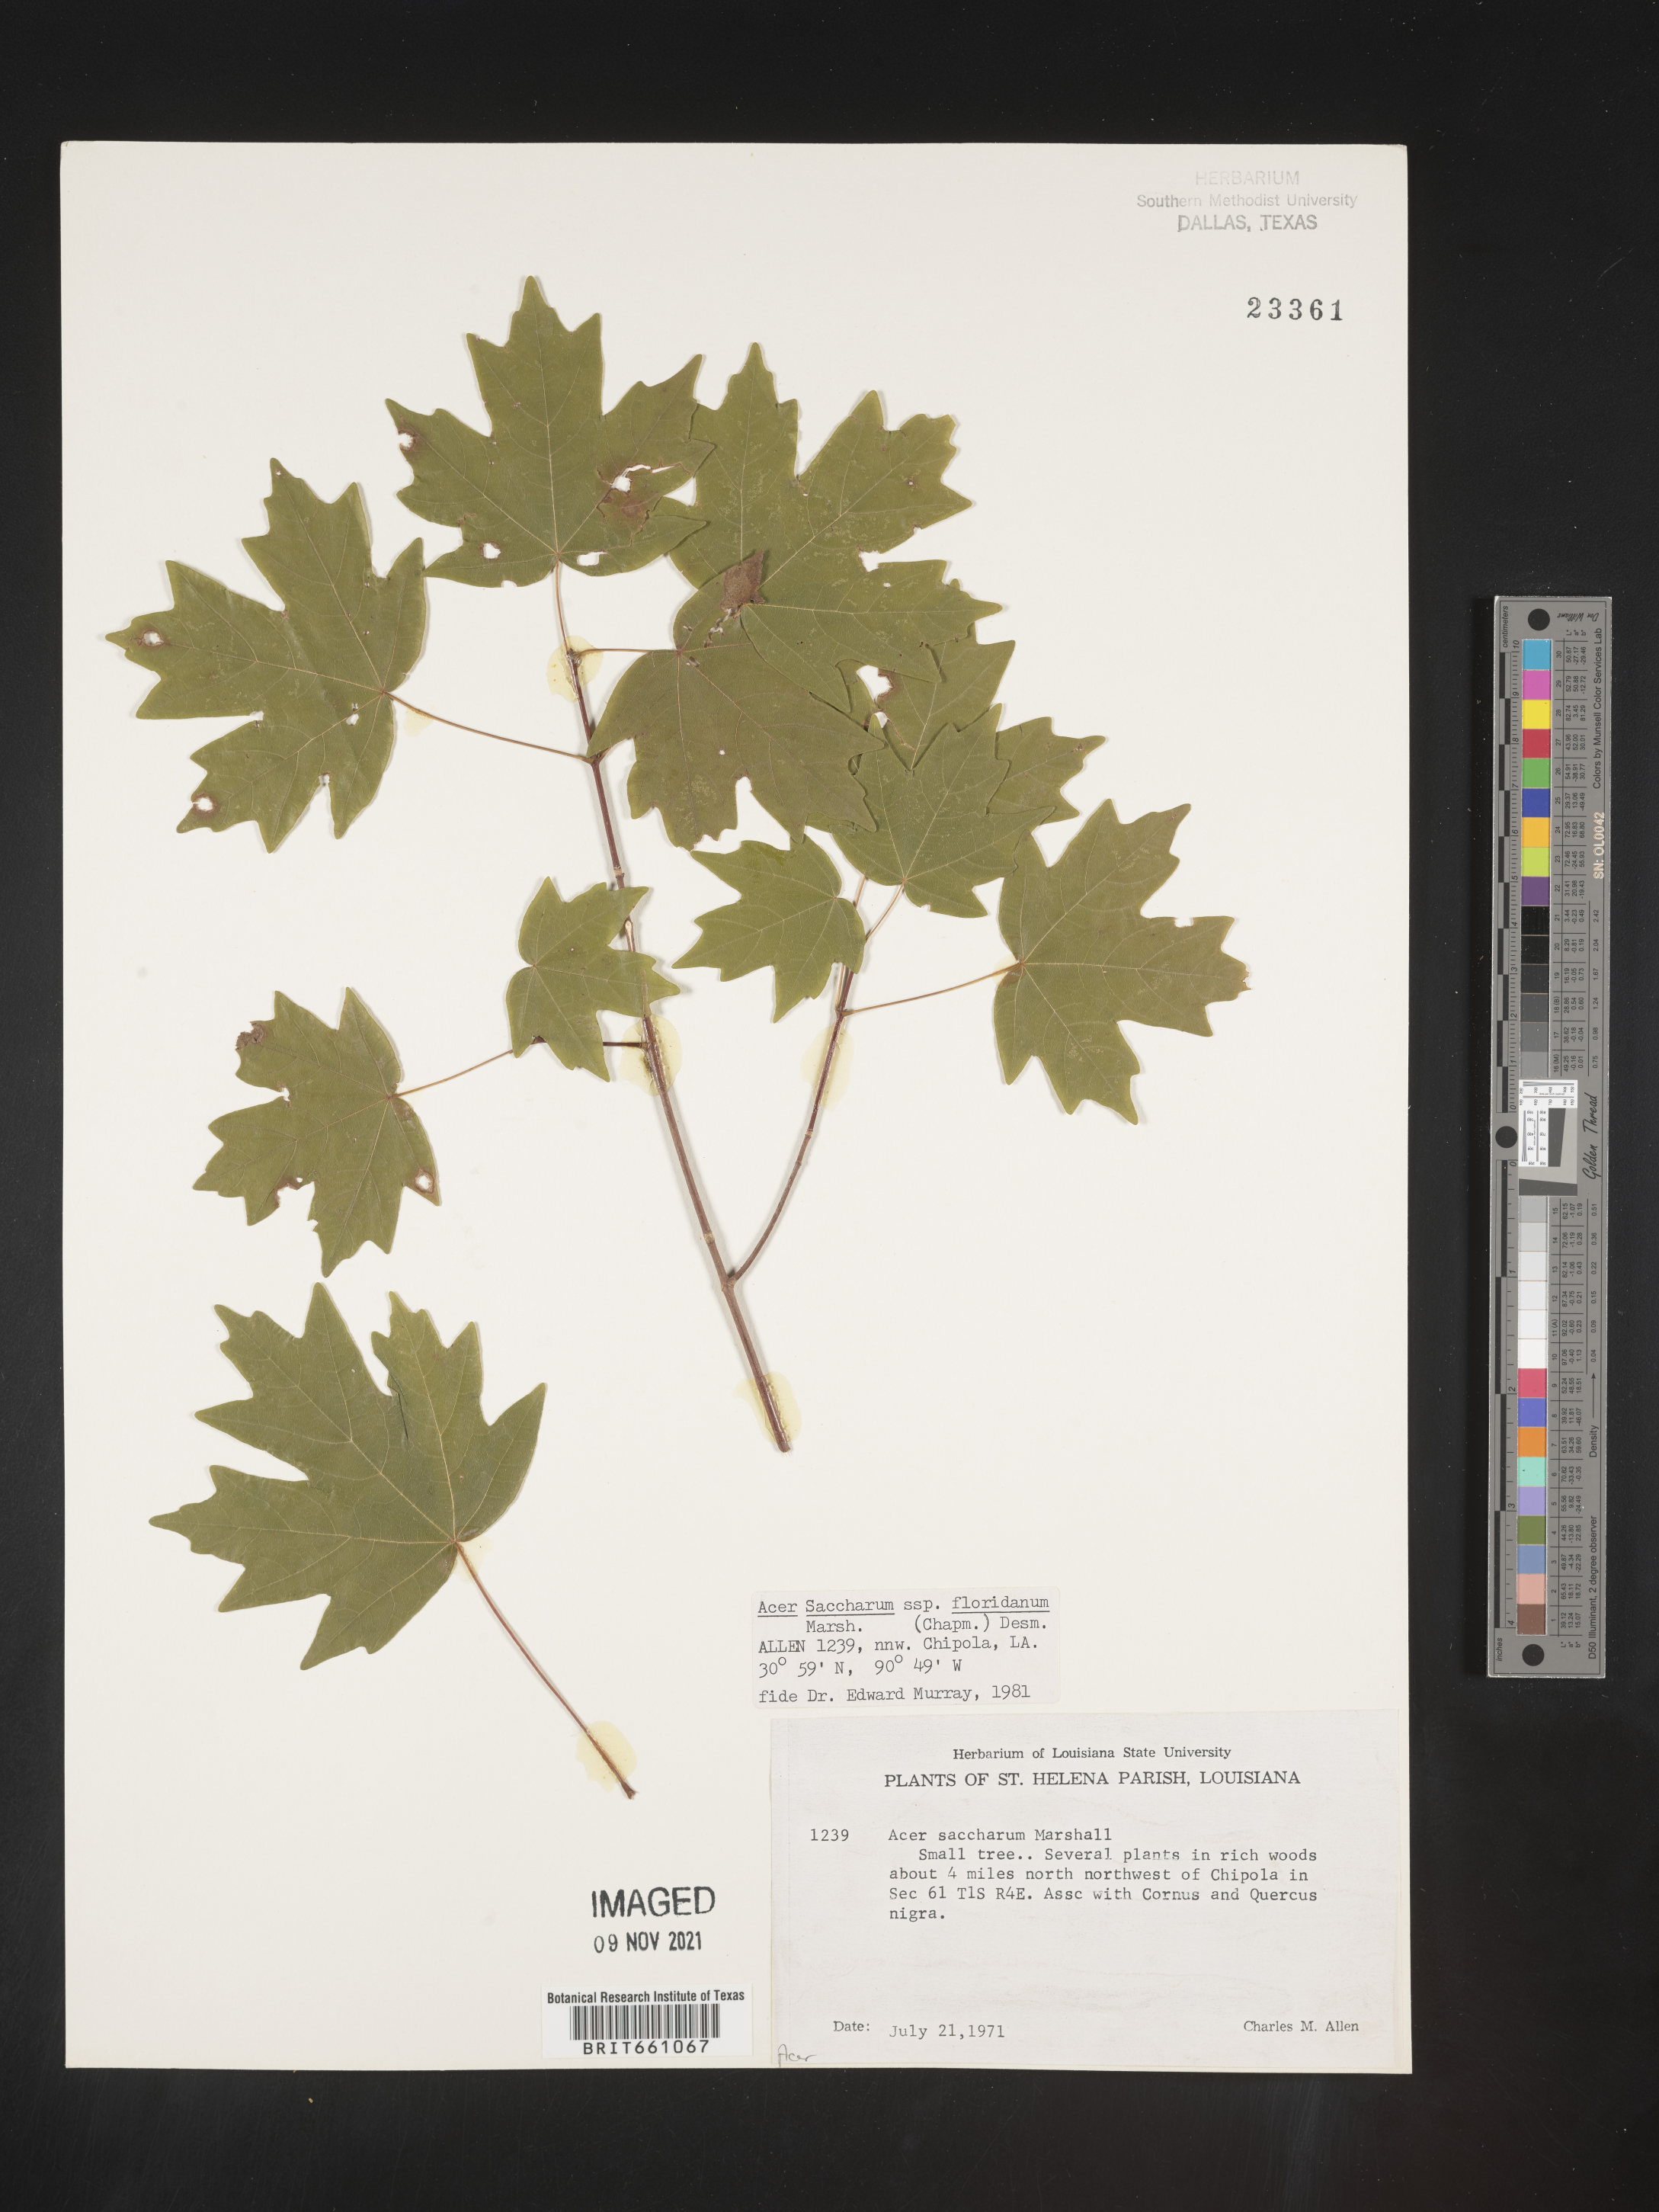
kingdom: Plantae
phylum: Tracheophyta
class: Magnoliopsida
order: Sapindales
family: Sapindaceae
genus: Acer
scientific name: Acer barbatum
